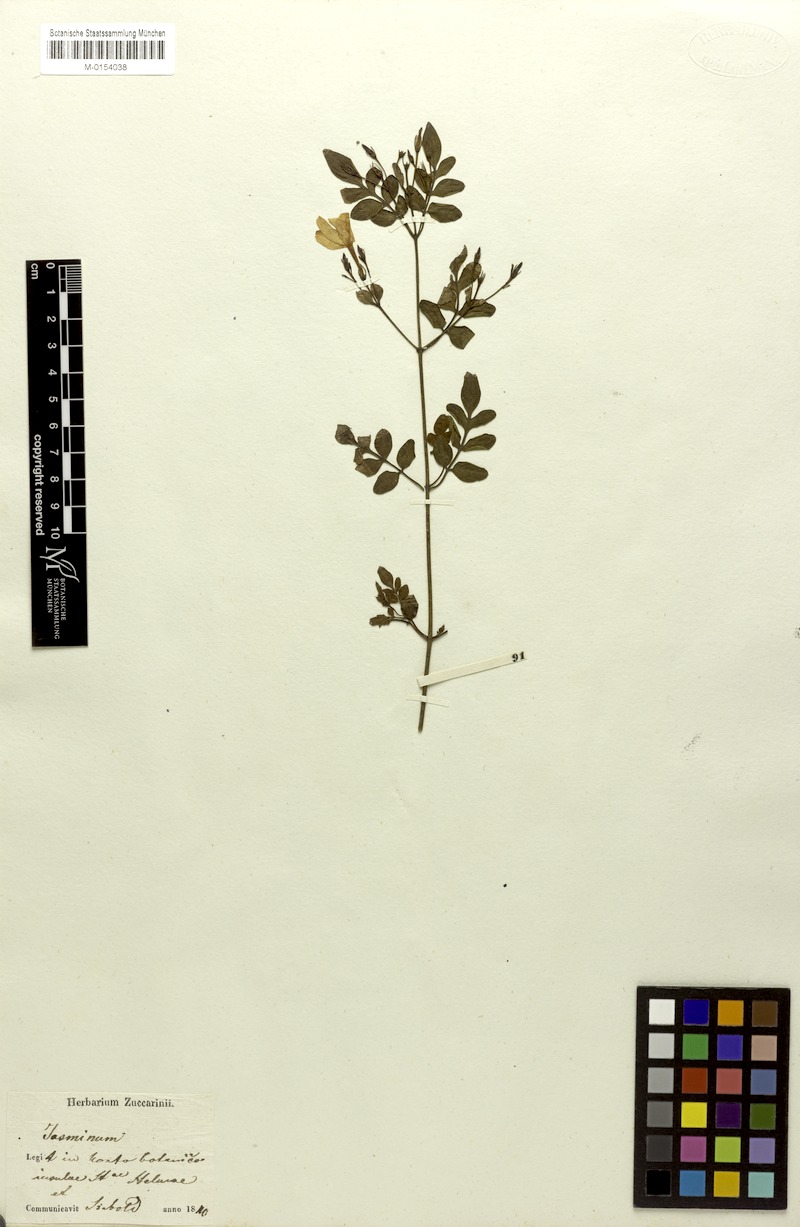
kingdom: Plantae
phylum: Tracheophyta
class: Magnoliopsida
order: Lamiales
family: Oleaceae
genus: Jasminum
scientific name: Jasminum officinale
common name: Summer jasmine
